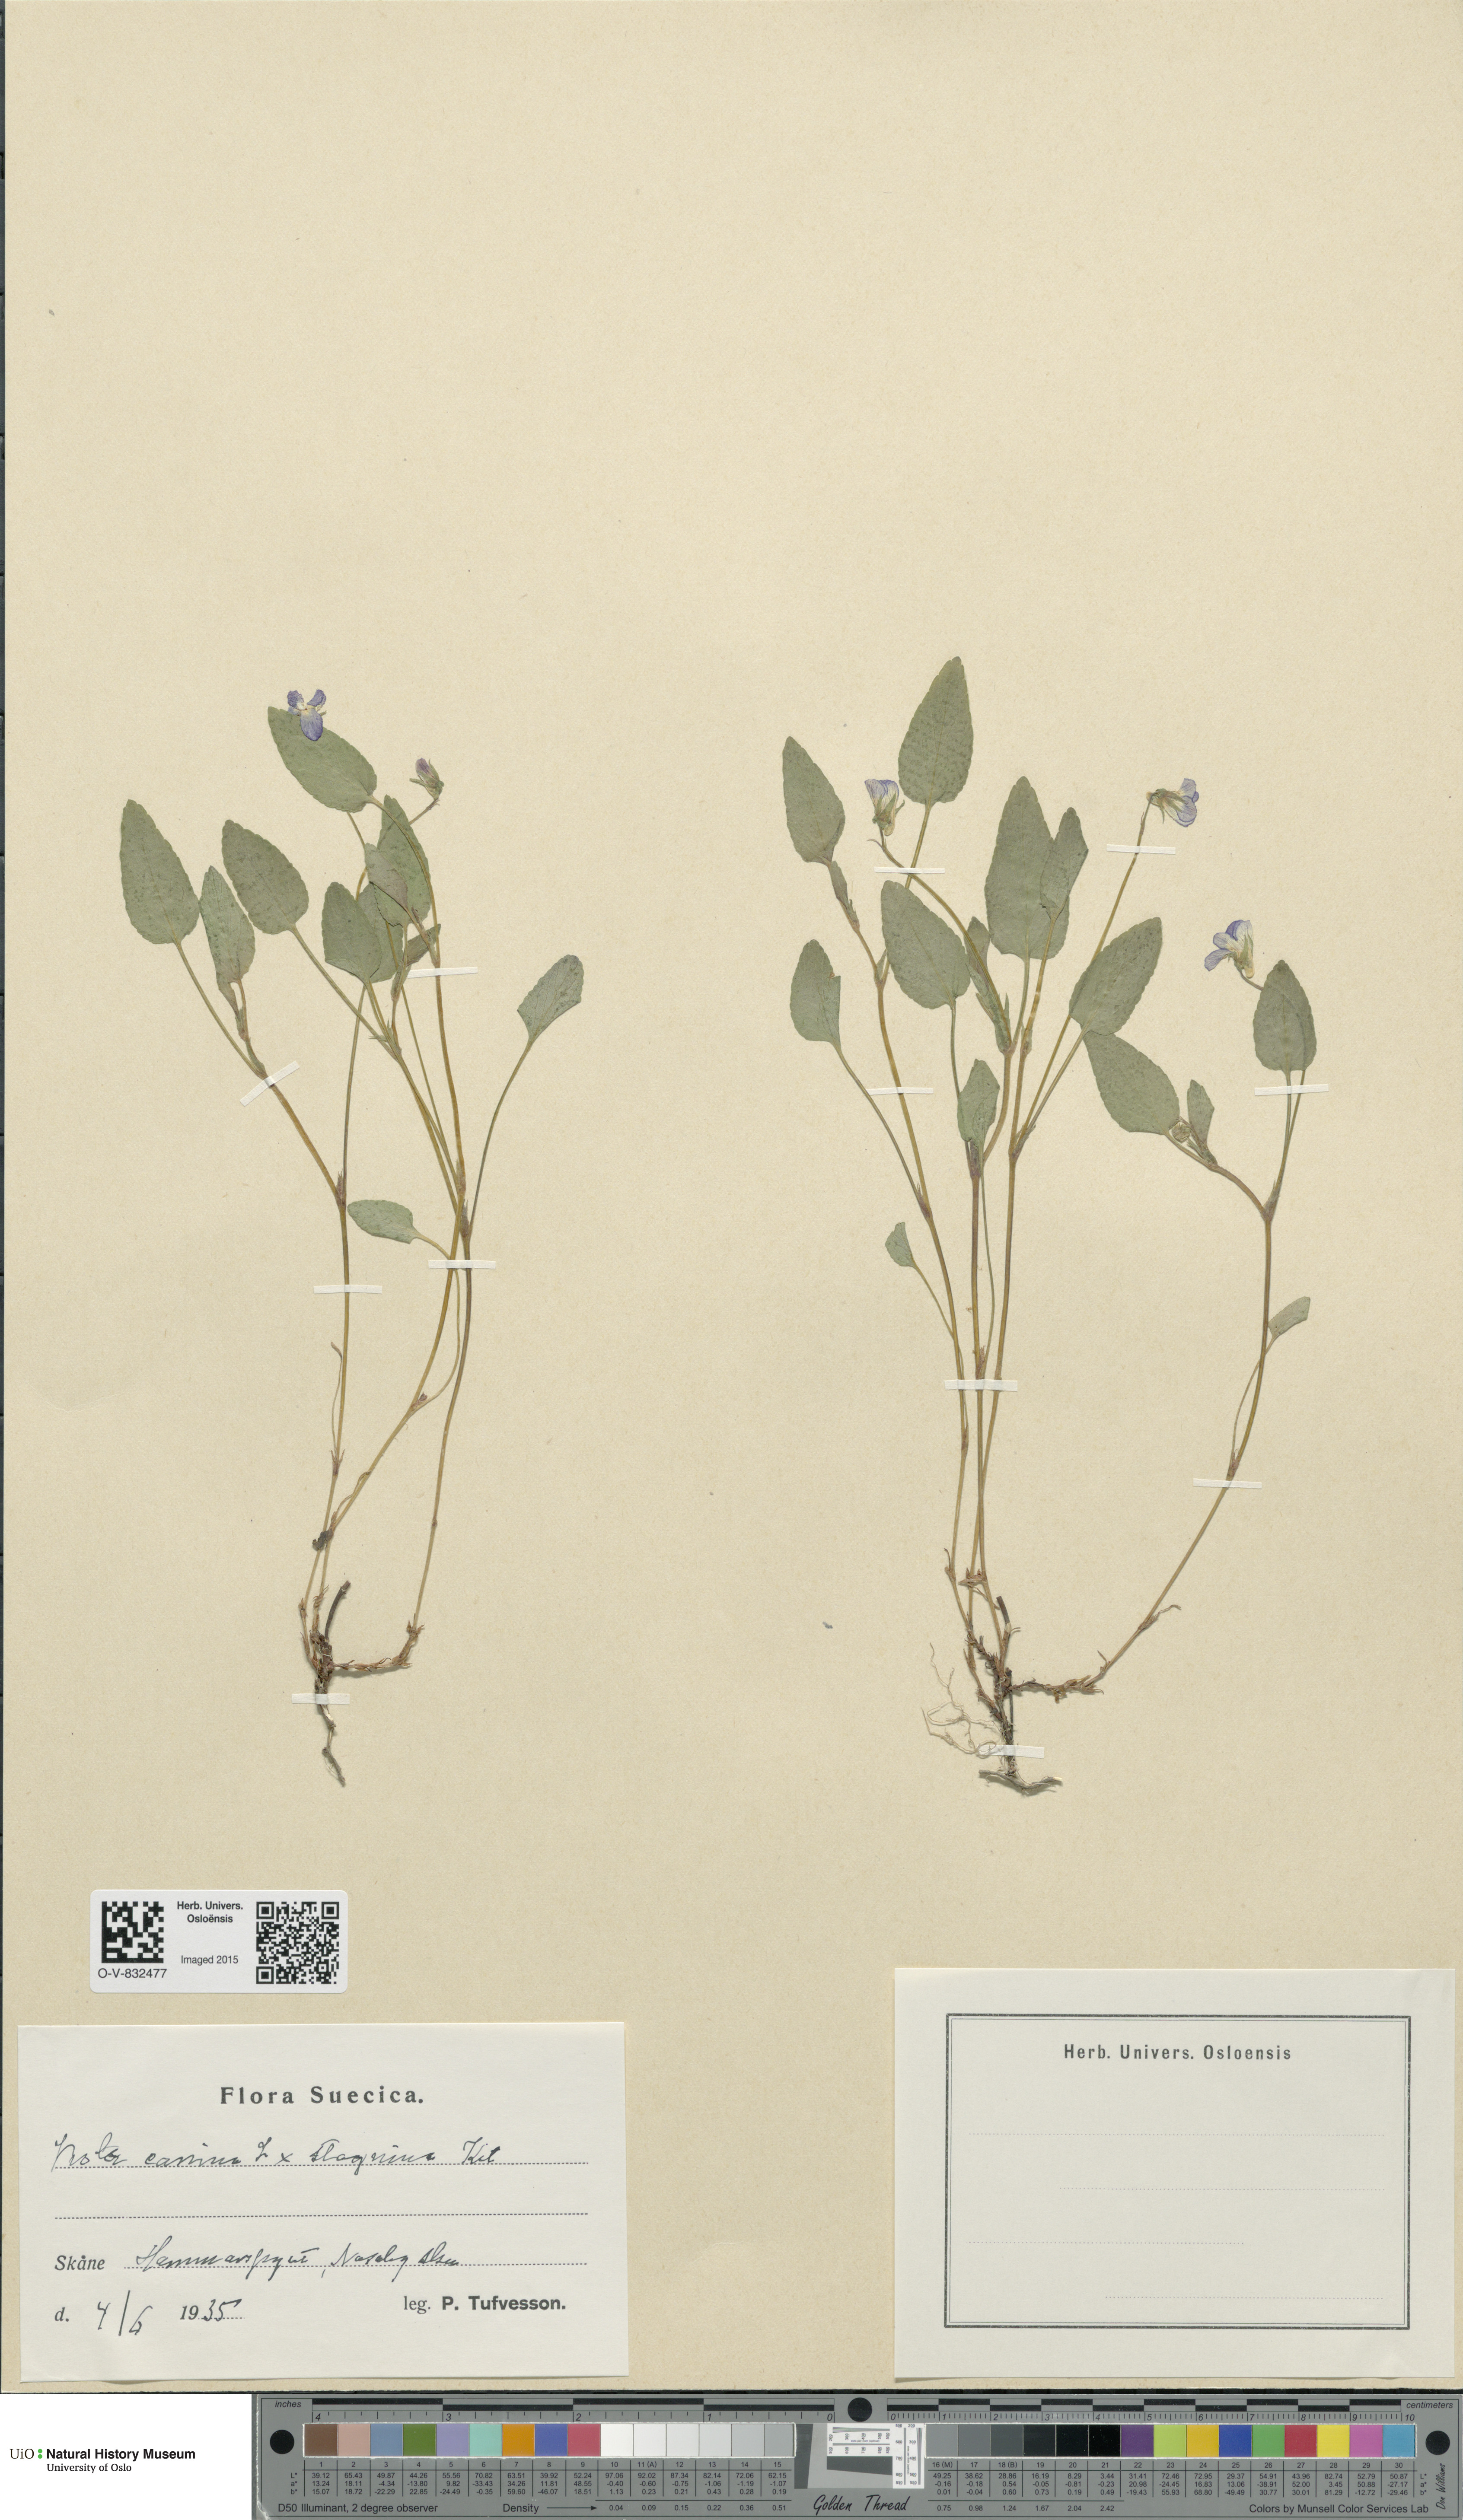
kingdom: Plantae
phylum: Tracheophyta
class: Magnoliopsida
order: Malpighiales
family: Violaceae
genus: Viola
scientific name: Viola
